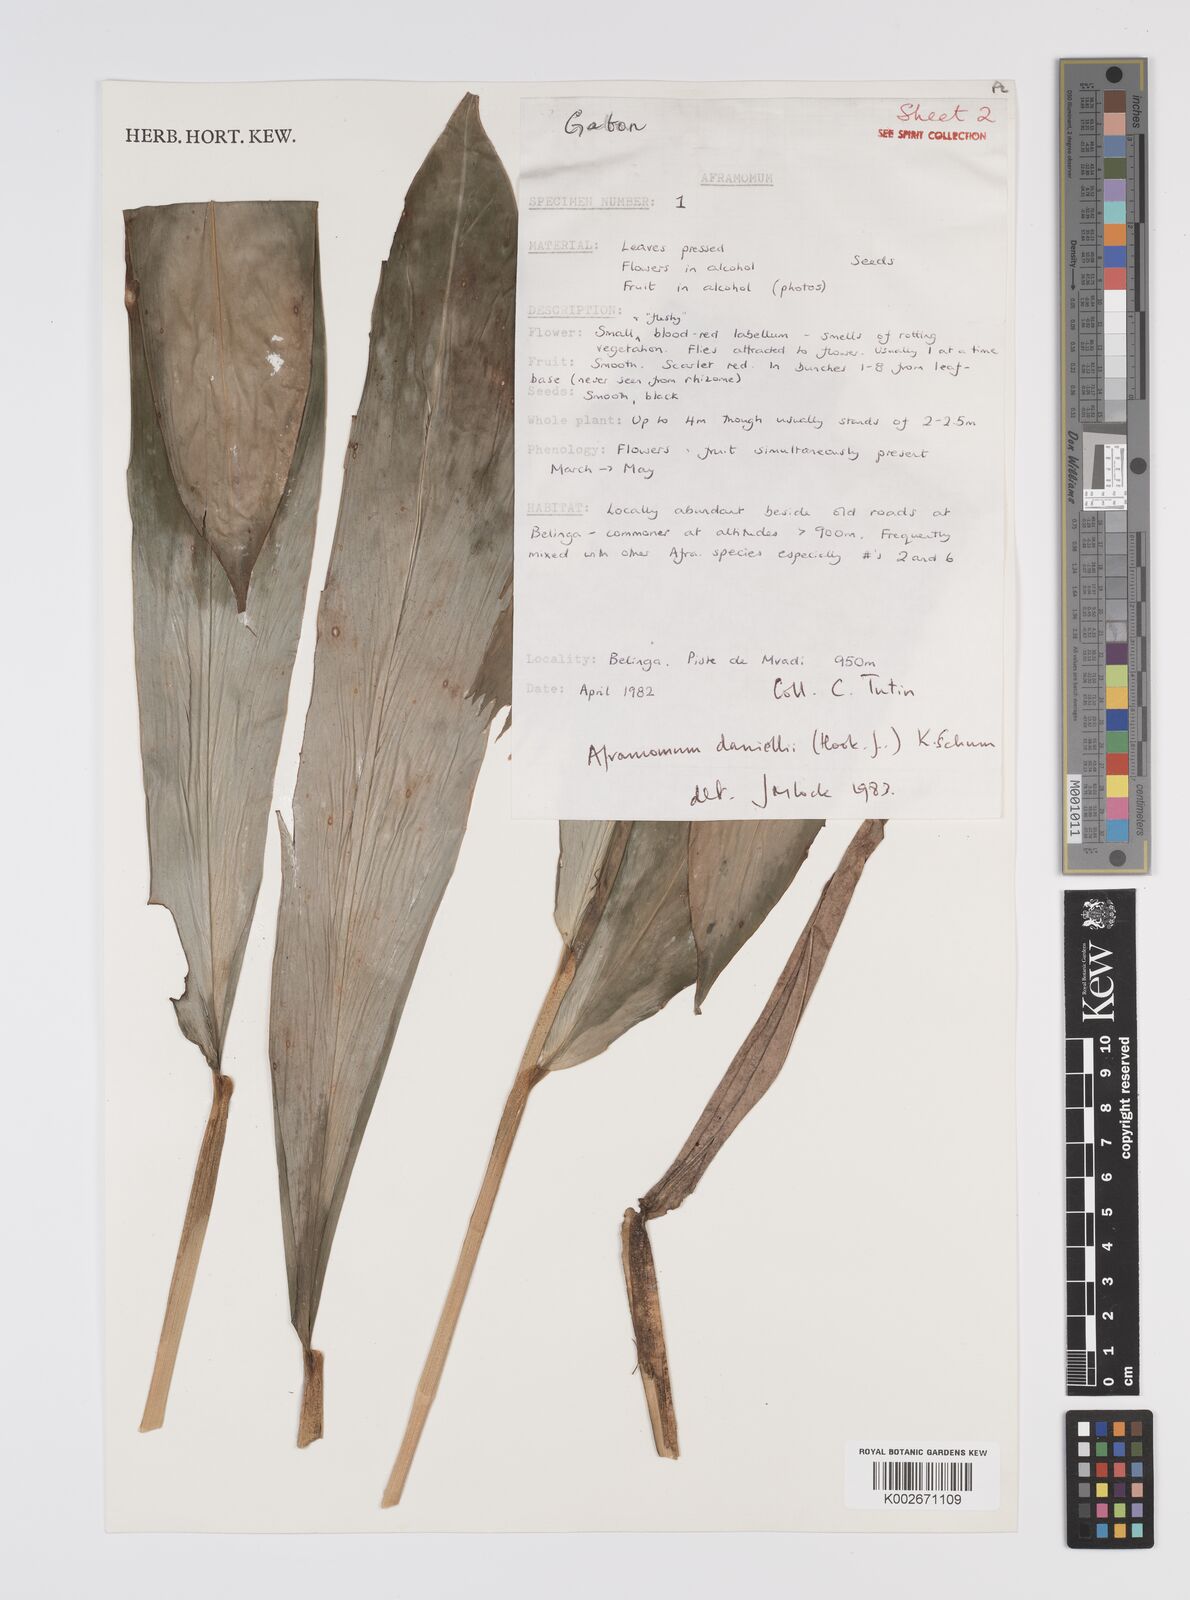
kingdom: Plantae
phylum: Tracheophyta
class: Liliopsida
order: Zingiberales
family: Zingiberaceae
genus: Aframomum
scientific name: Aframomum daniellii
